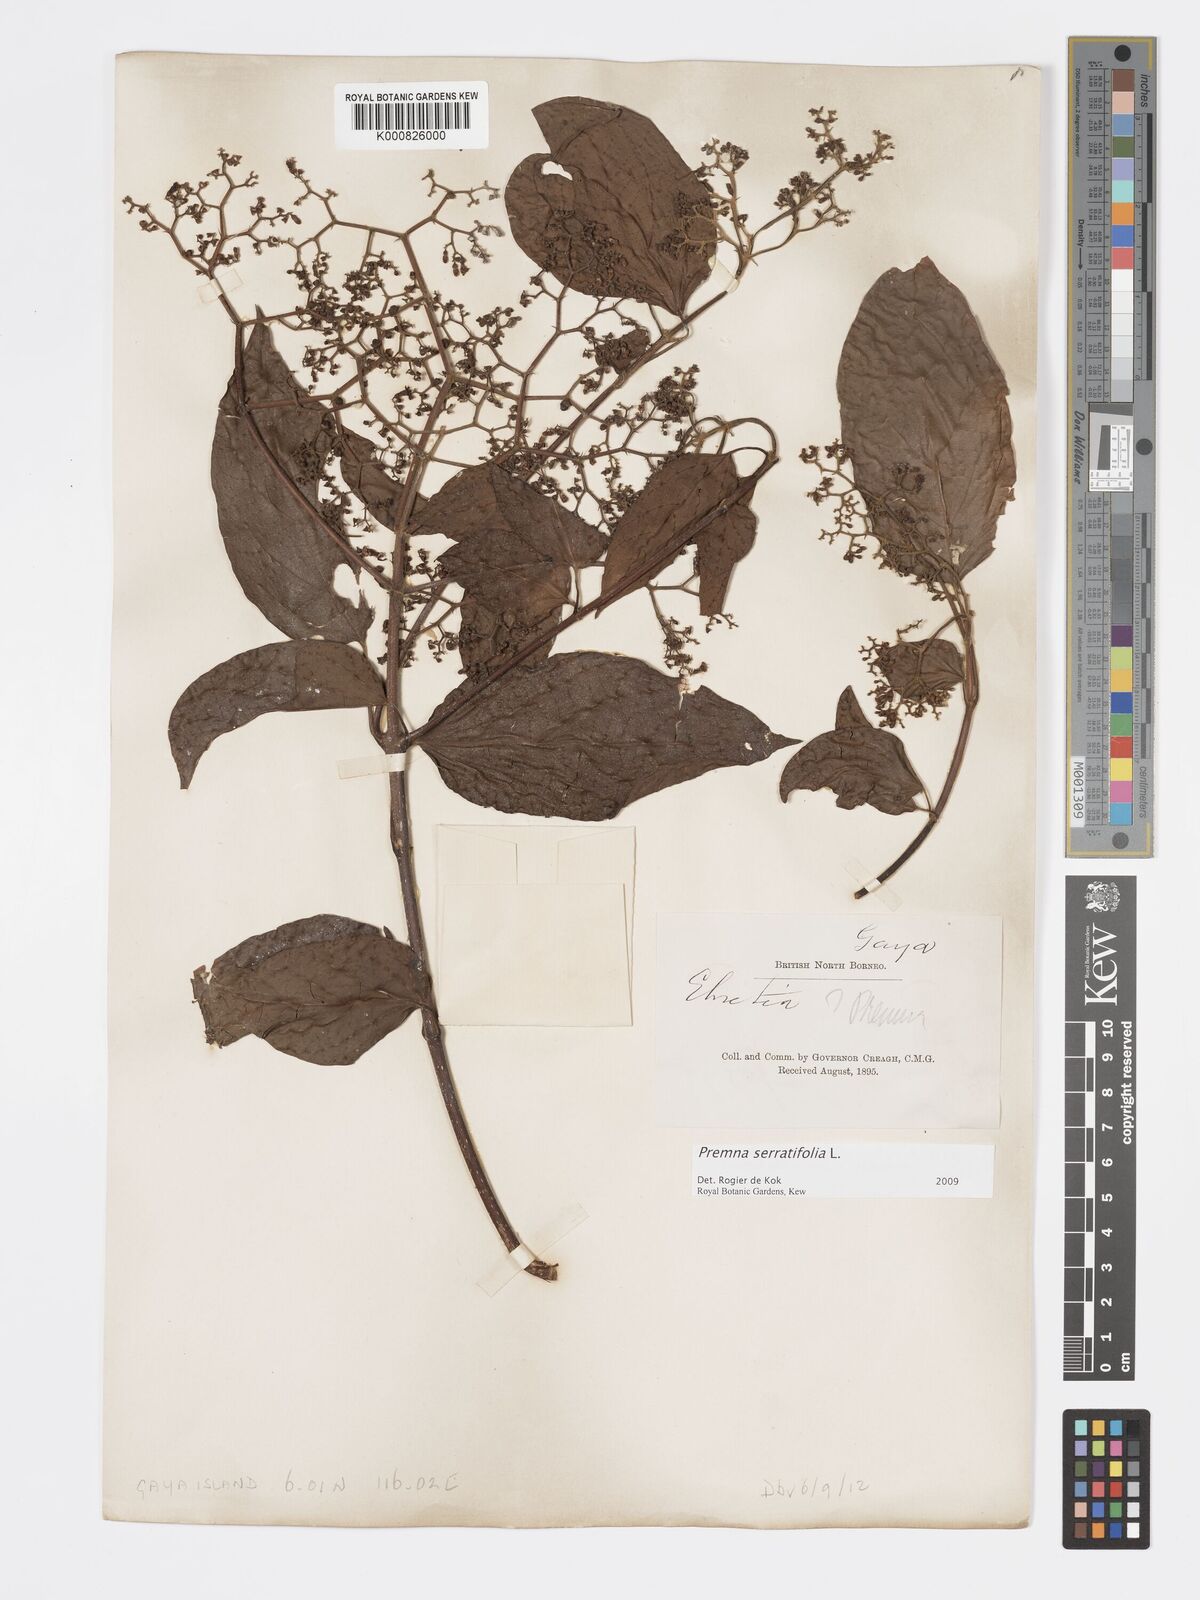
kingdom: Plantae
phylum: Tracheophyta
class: Magnoliopsida
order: Lamiales
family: Lamiaceae
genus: Premna
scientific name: Premna serratifolia
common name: Bastard guelder
